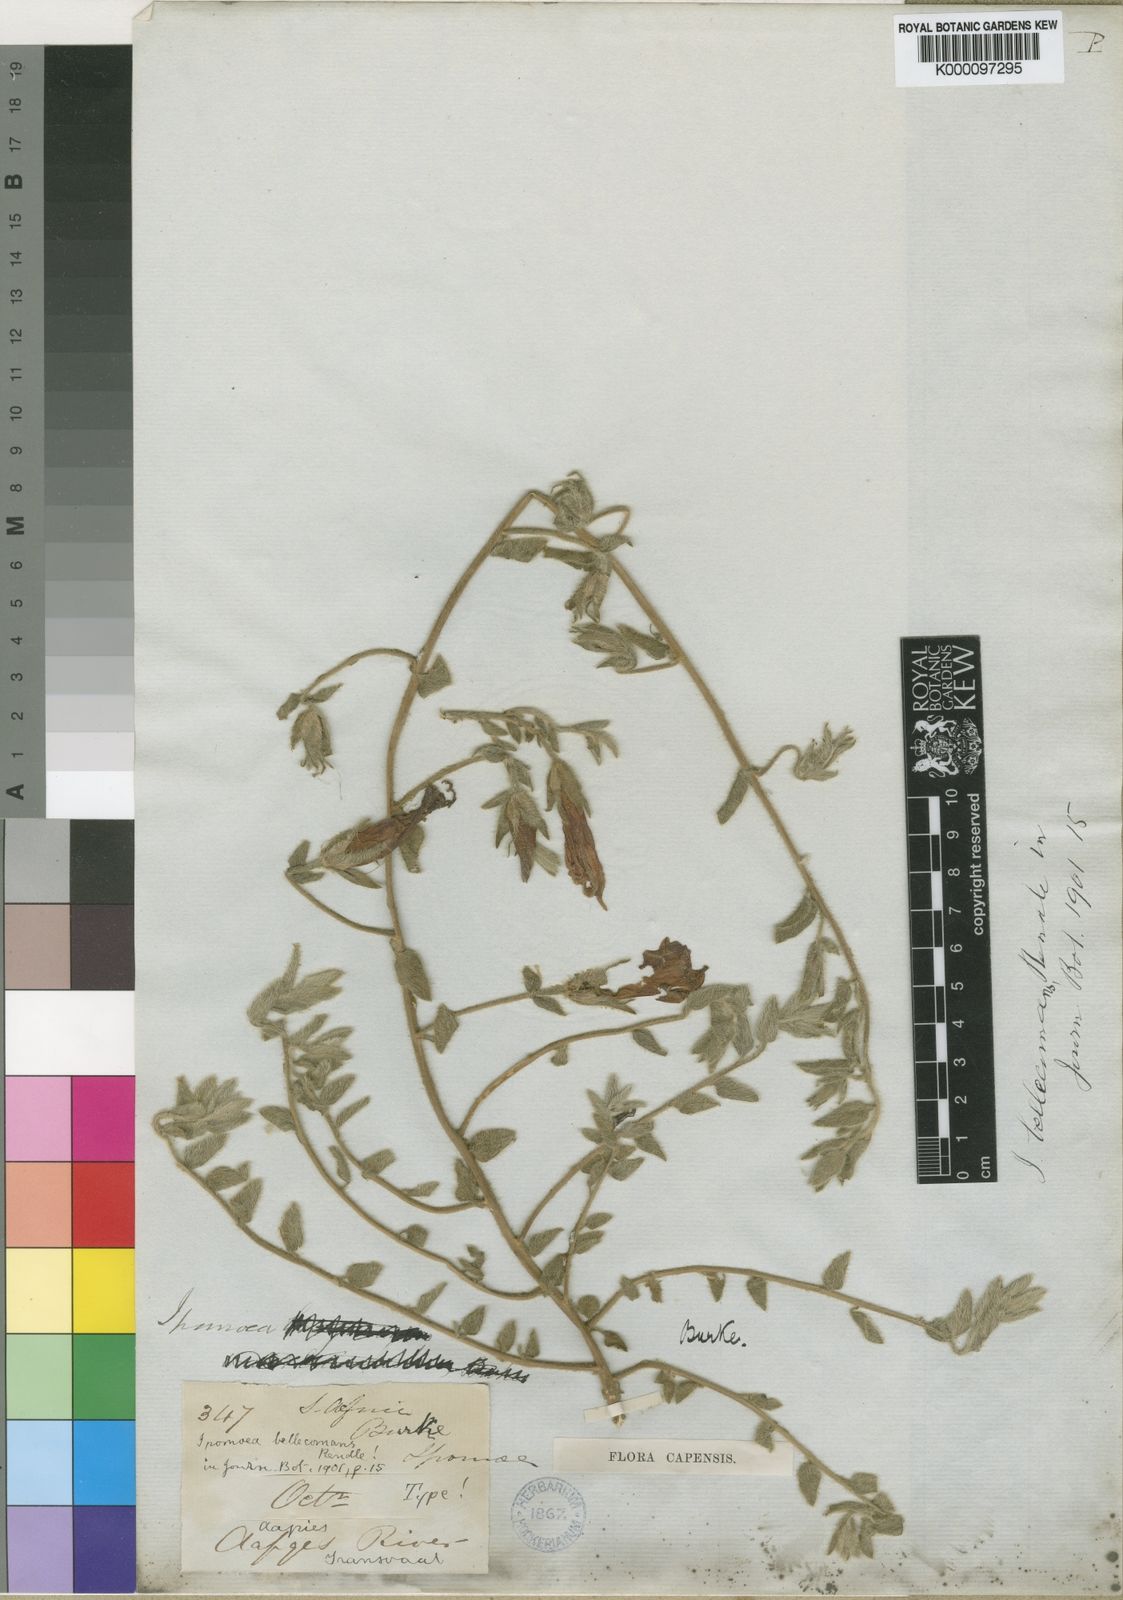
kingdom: Plantae
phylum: Tracheophyta
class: Magnoliopsida
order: Solanales
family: Convolvulaceae
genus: Ipomoea
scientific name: Ipomoea crassipes
